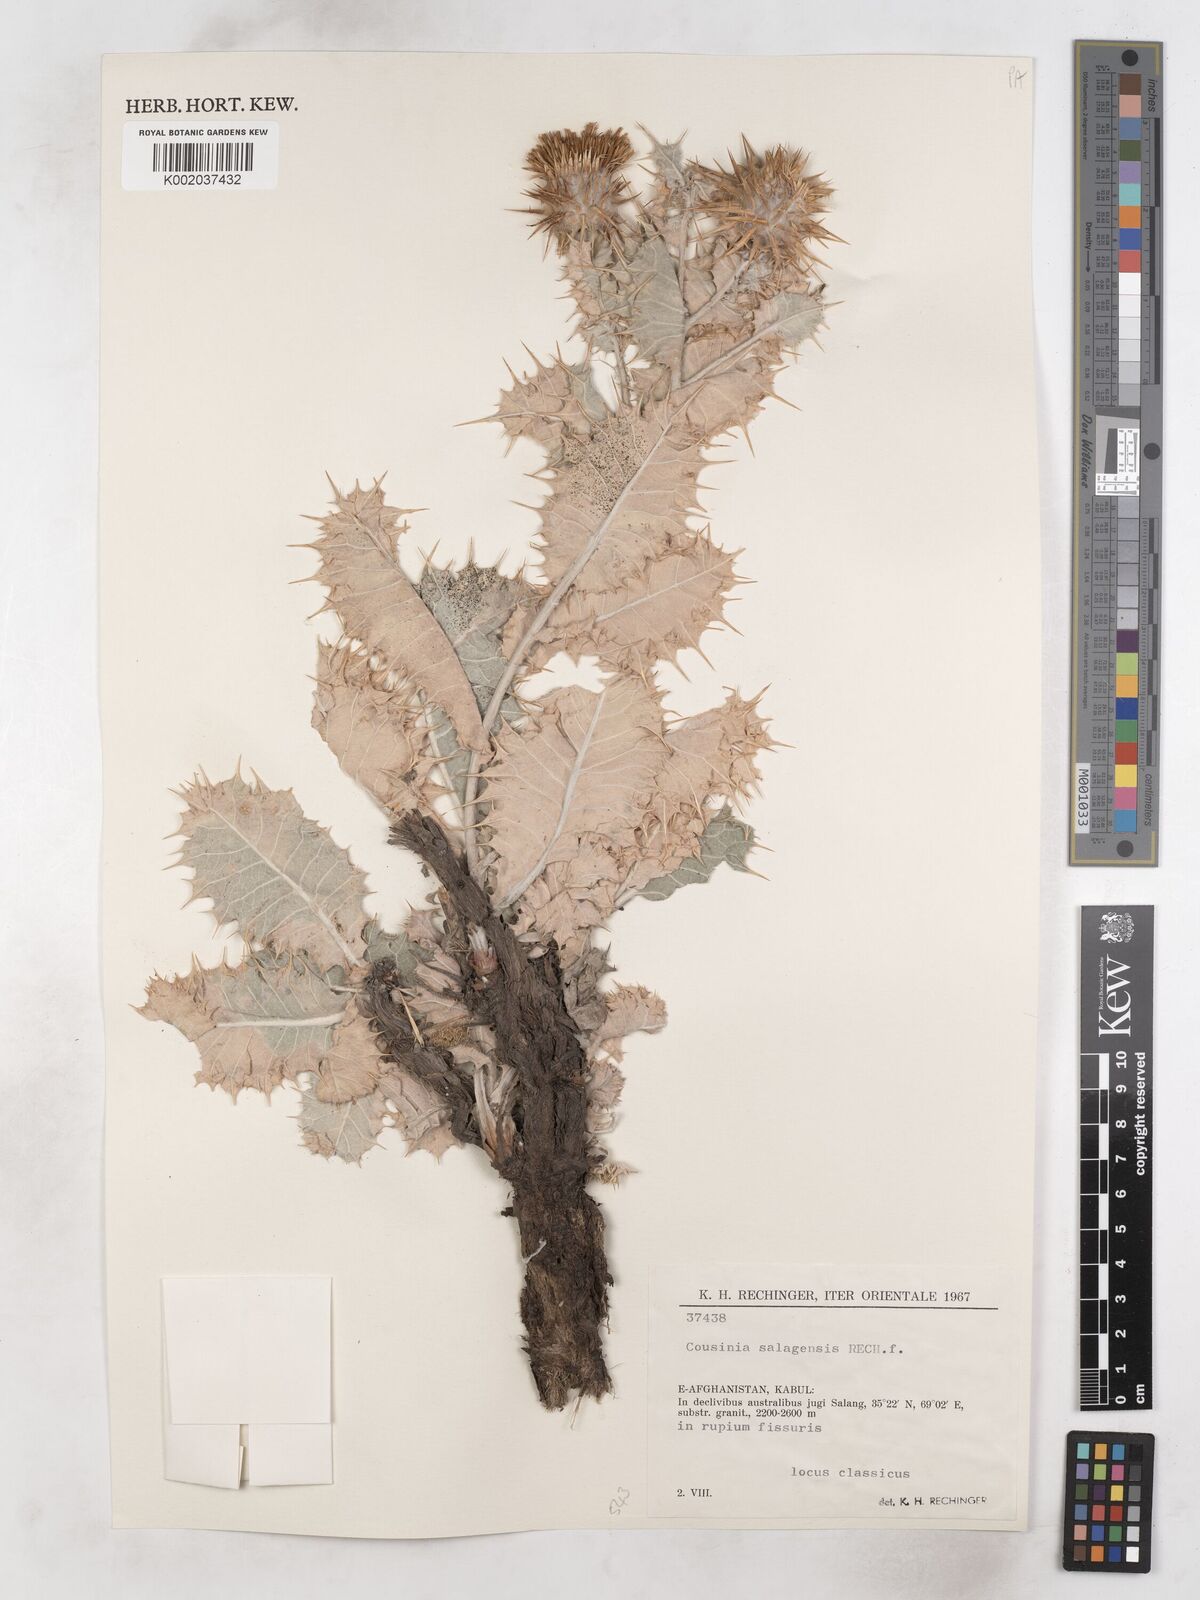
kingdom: Plantae
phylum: Tracheophyta
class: Magnoliopsida
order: Asterales
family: Asteraceae
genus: Cousinia
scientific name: Cousinia salangensis
